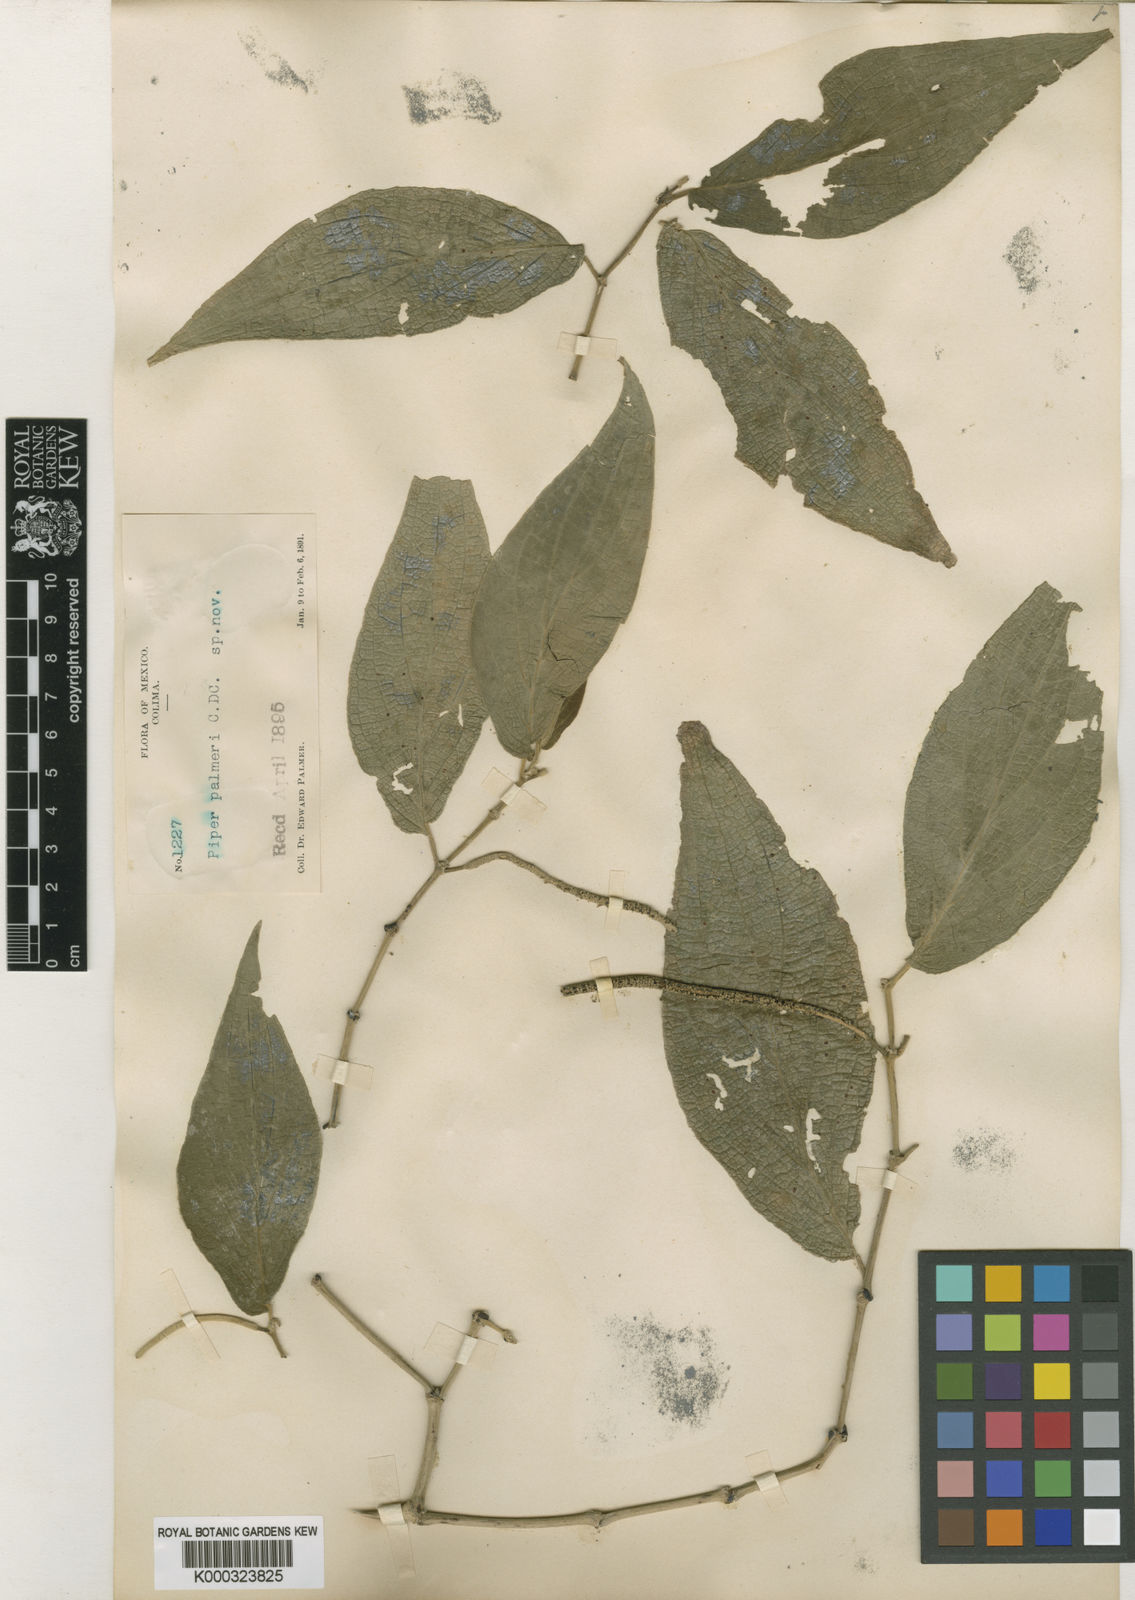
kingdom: Plantae
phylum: Tracheophyta
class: Magnoliopsida
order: Piperales
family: Piperaceae
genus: Piper
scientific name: Piper palmeri
